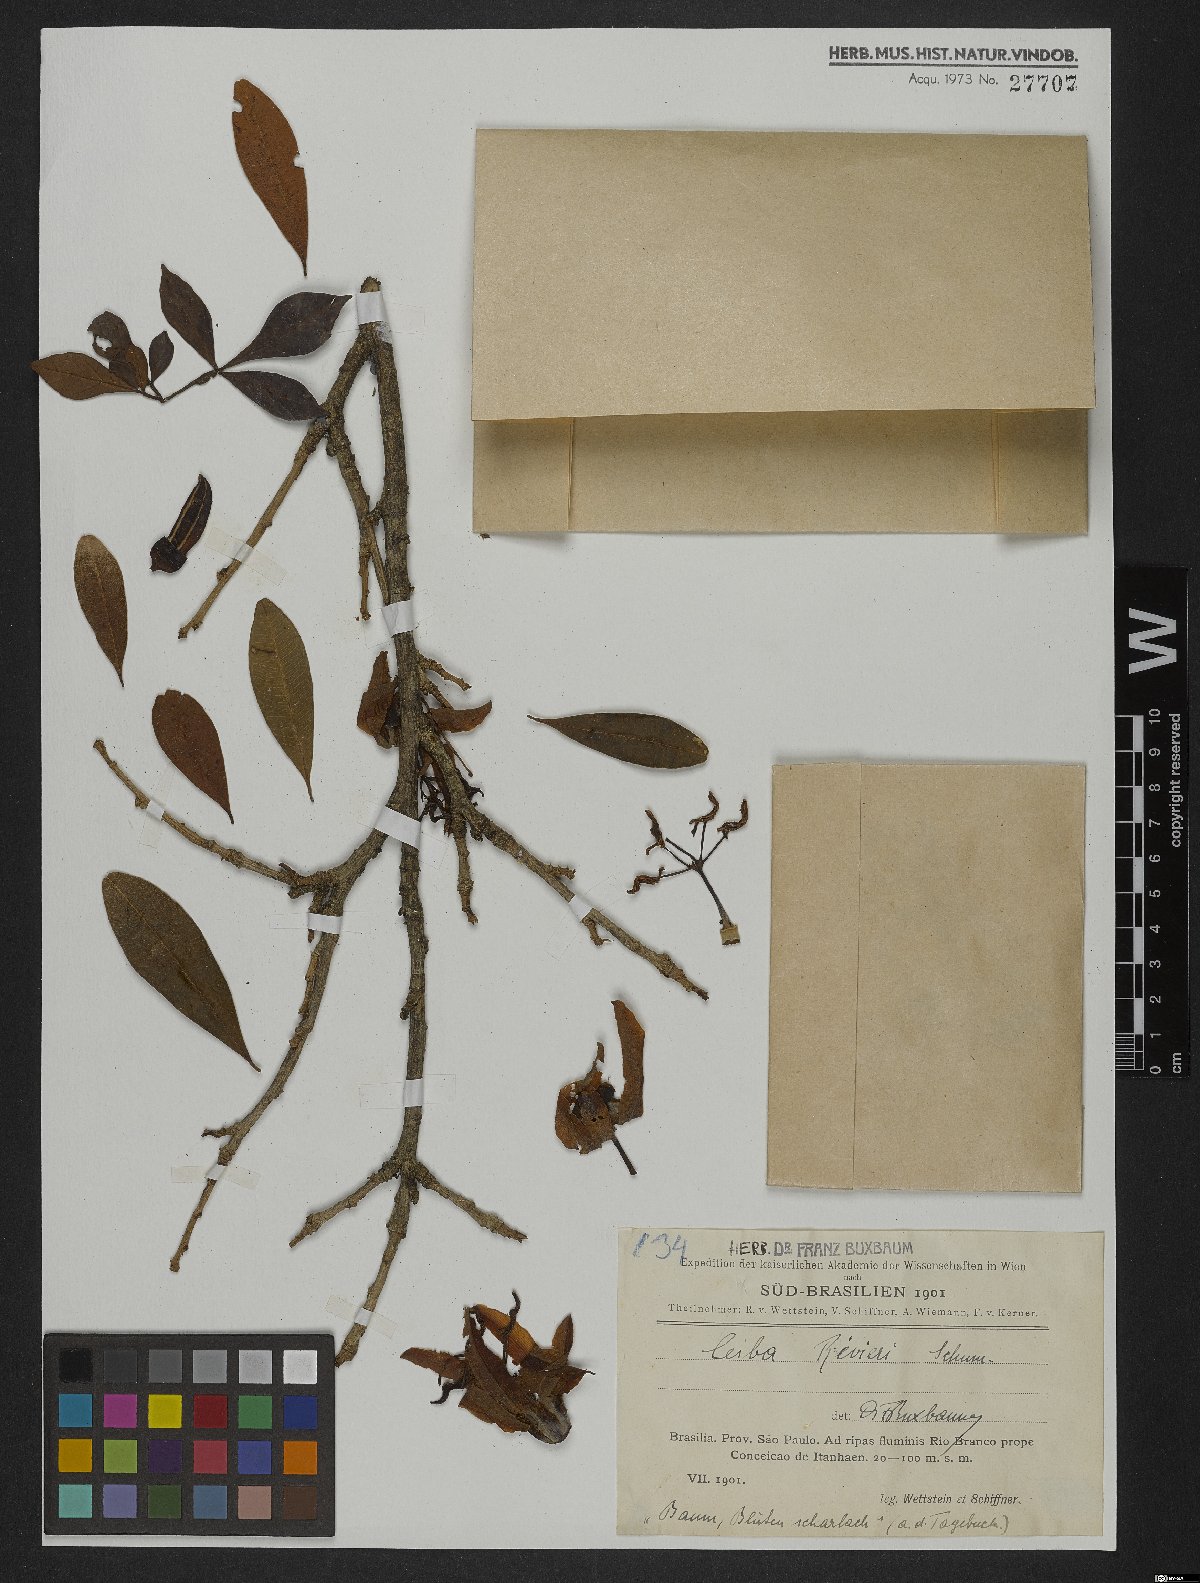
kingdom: Plantae
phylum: Tracheophyta
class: Magnoliopsida
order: Malvales
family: Malvaceae
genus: Spirotheca
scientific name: Spirotheca rivieri
